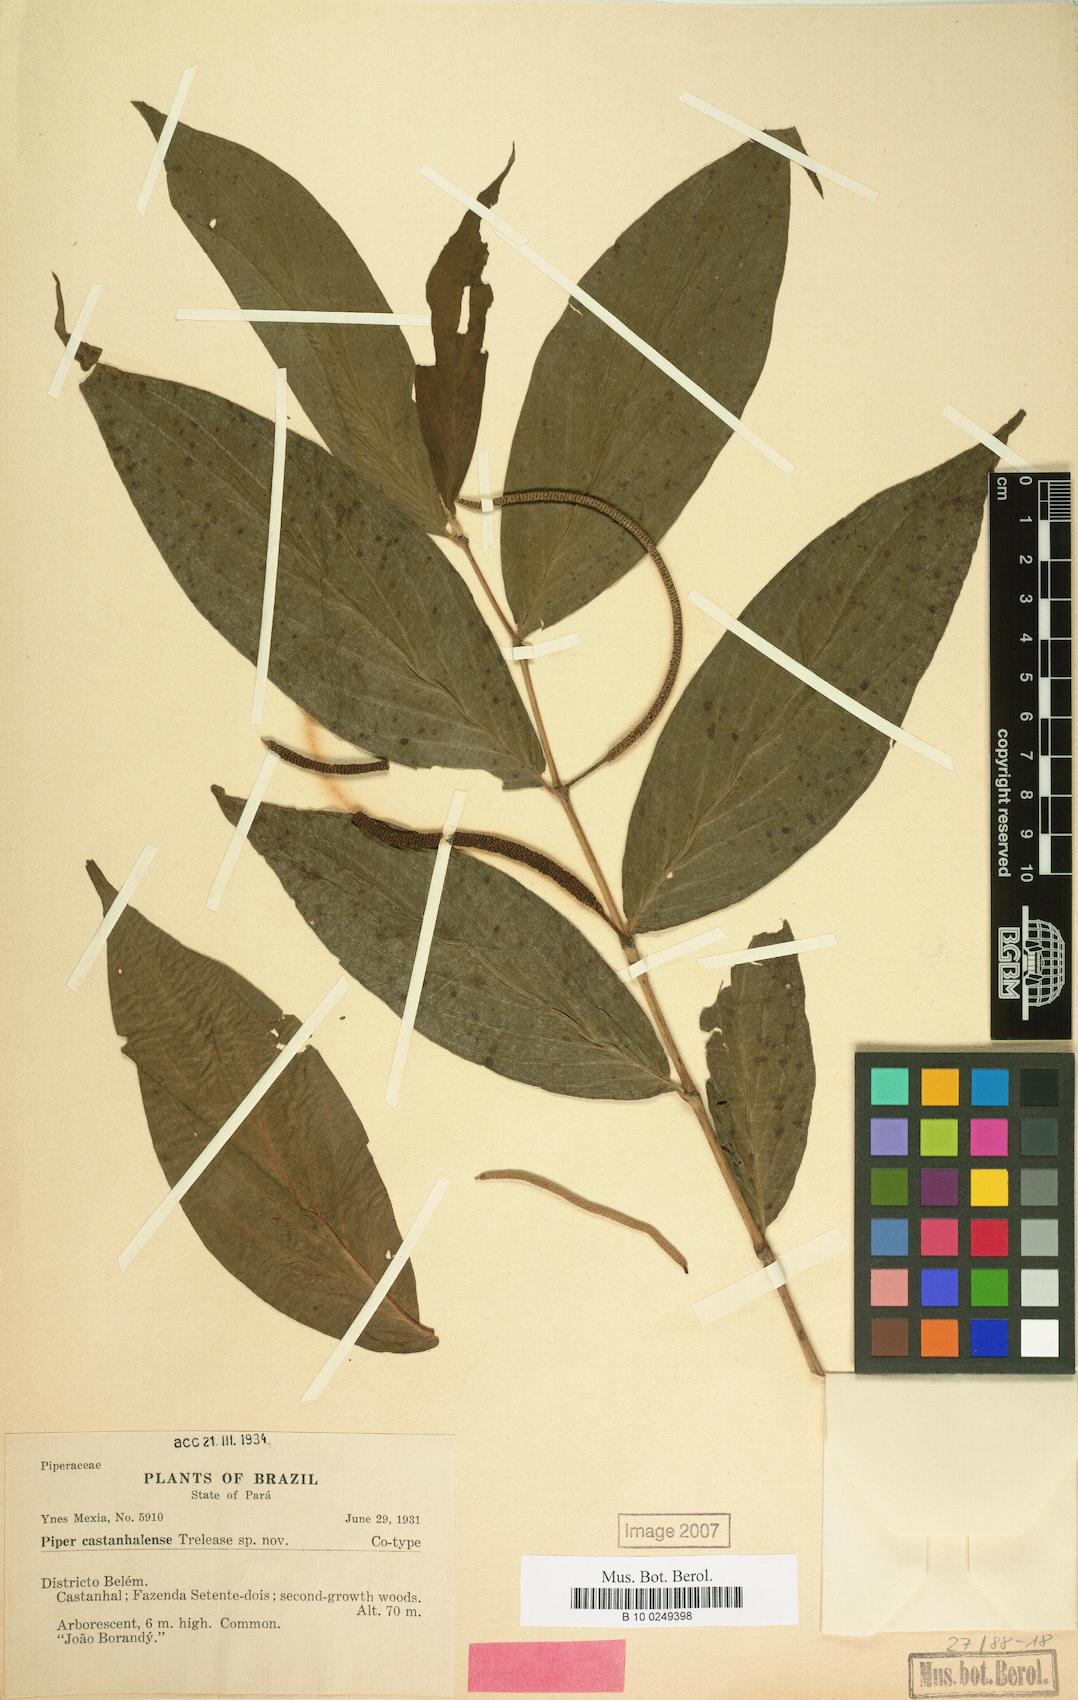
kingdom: Plantae
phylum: Tracheophyta
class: Magnoliopsida
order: Piperales
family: Piperaceae
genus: Piper
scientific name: Piper
